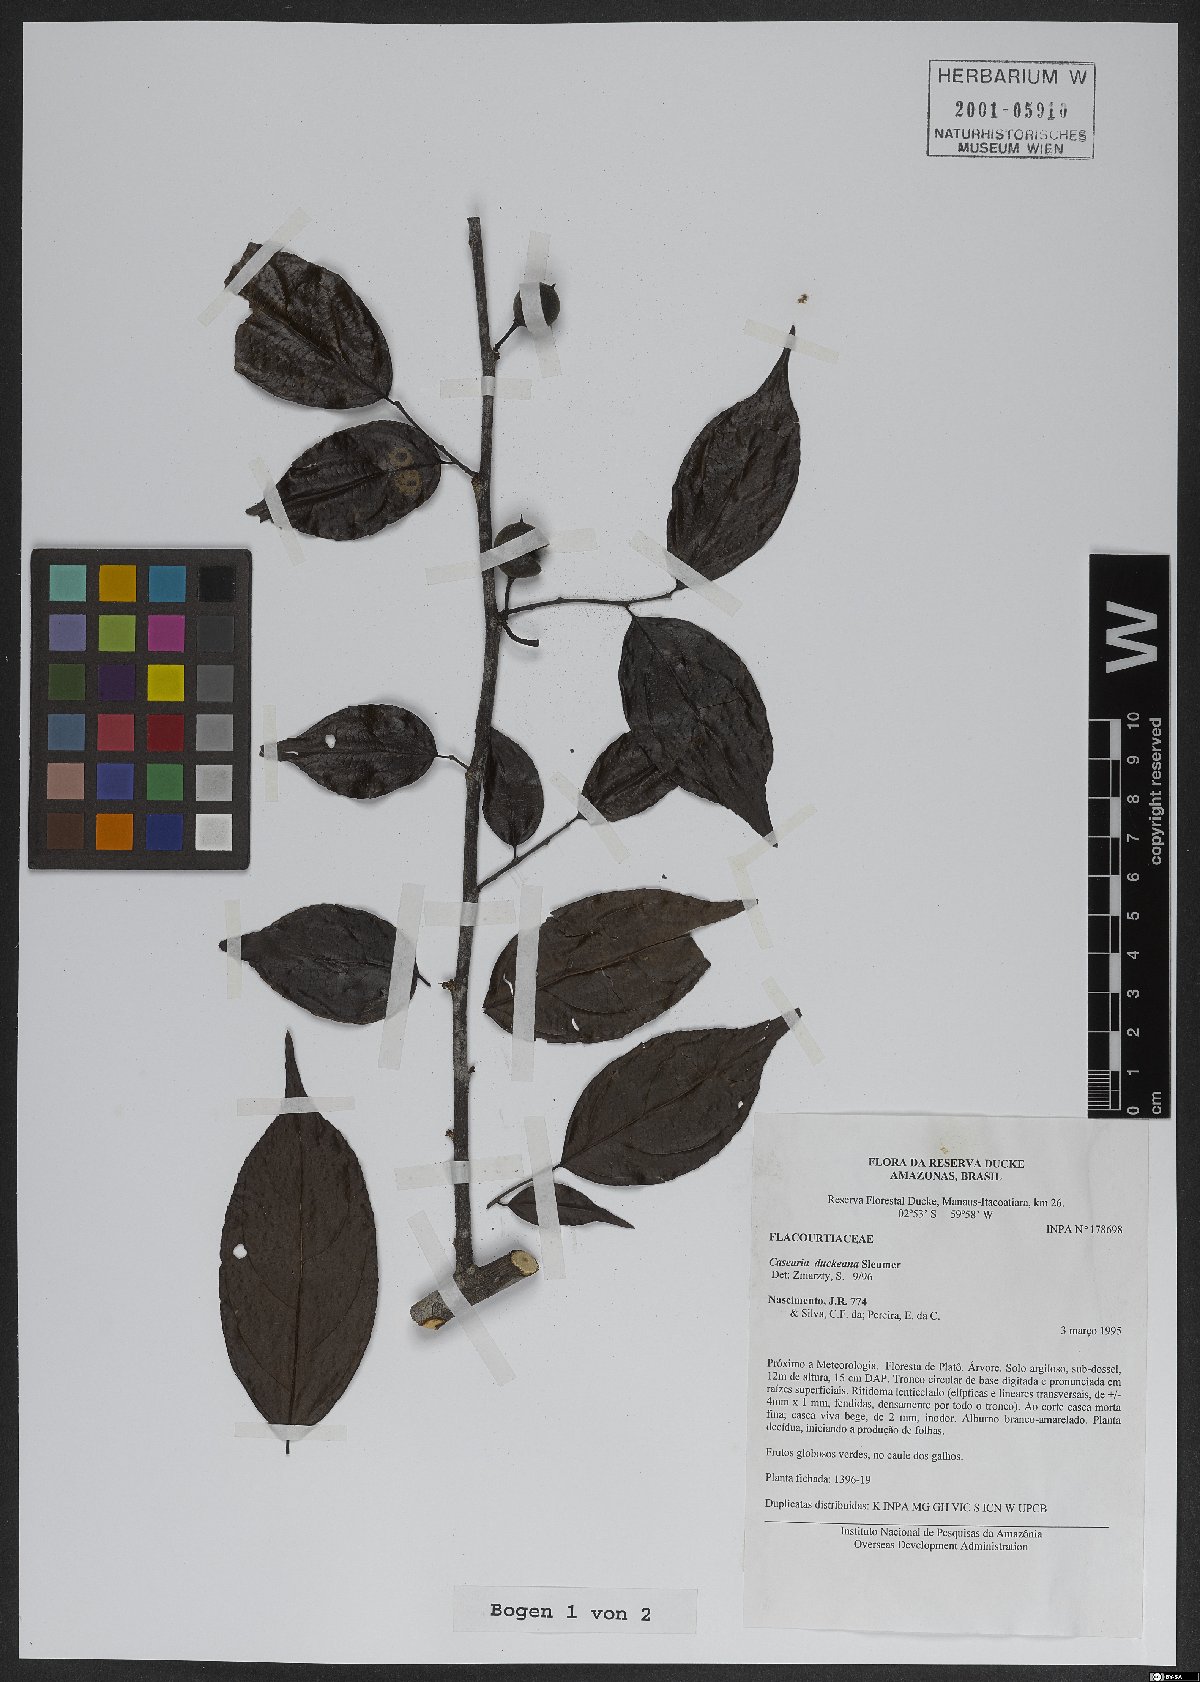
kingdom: Plantae
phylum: Tracheophyta
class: Magnoliopsida
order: Malpighiales
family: Salicaceae
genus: Casearia
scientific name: Casearia duckeana
